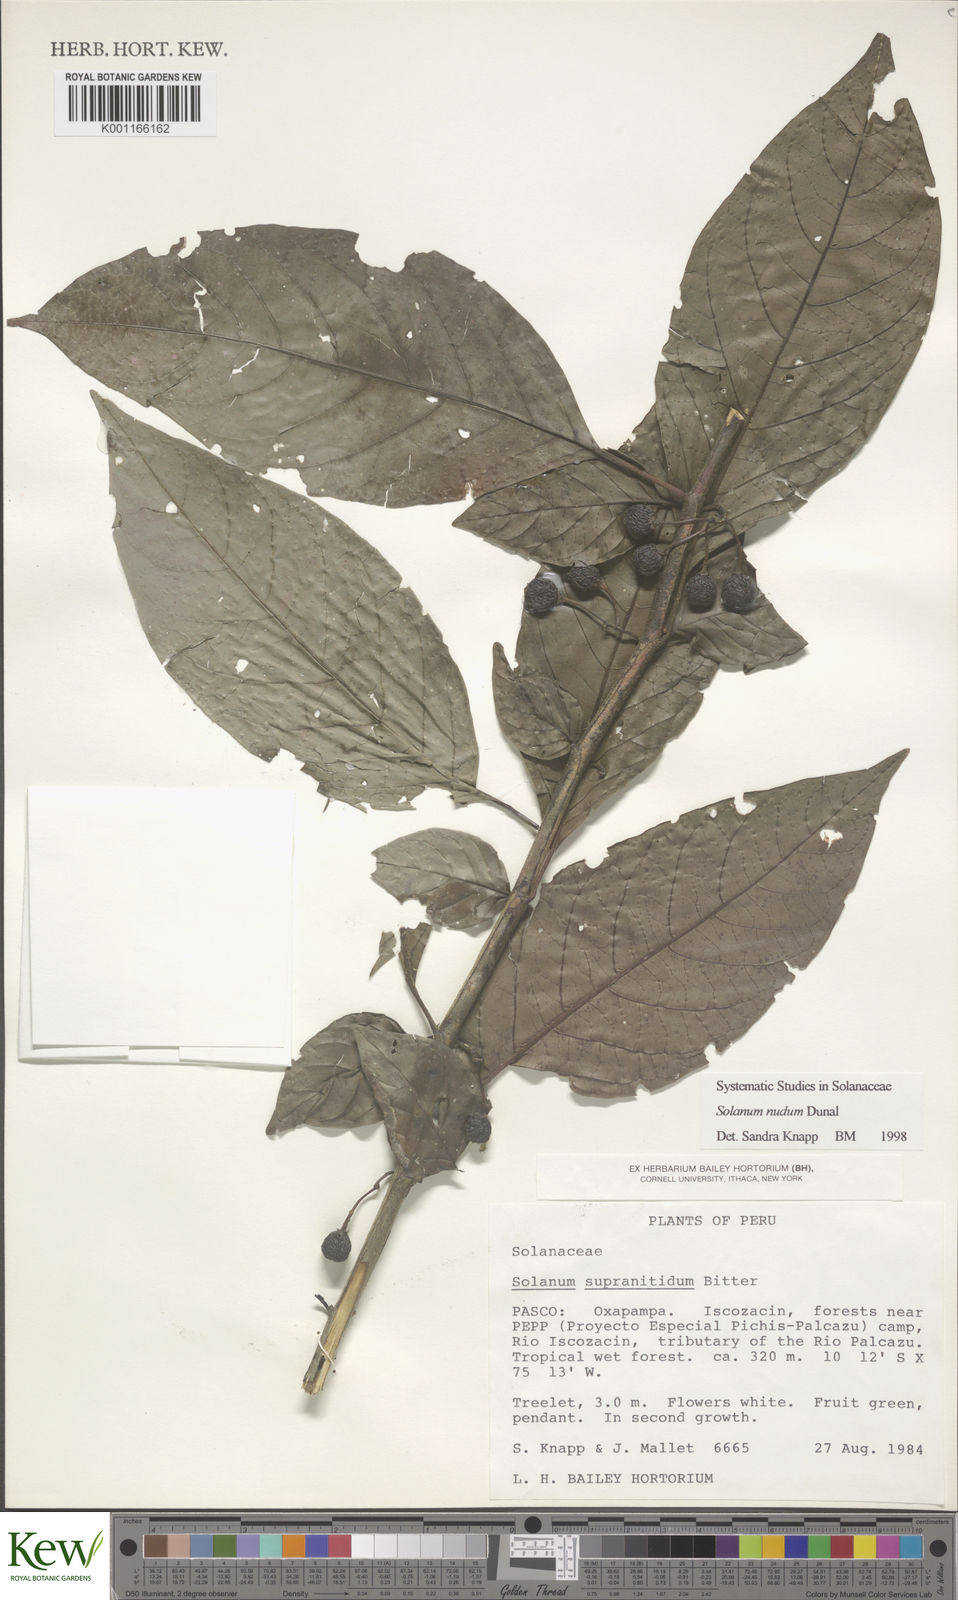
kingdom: Plantae
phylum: Tracheophyta
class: Magnoliopsida
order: Solanales
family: Solanaceae
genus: Solanum
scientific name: Solanum nudum
